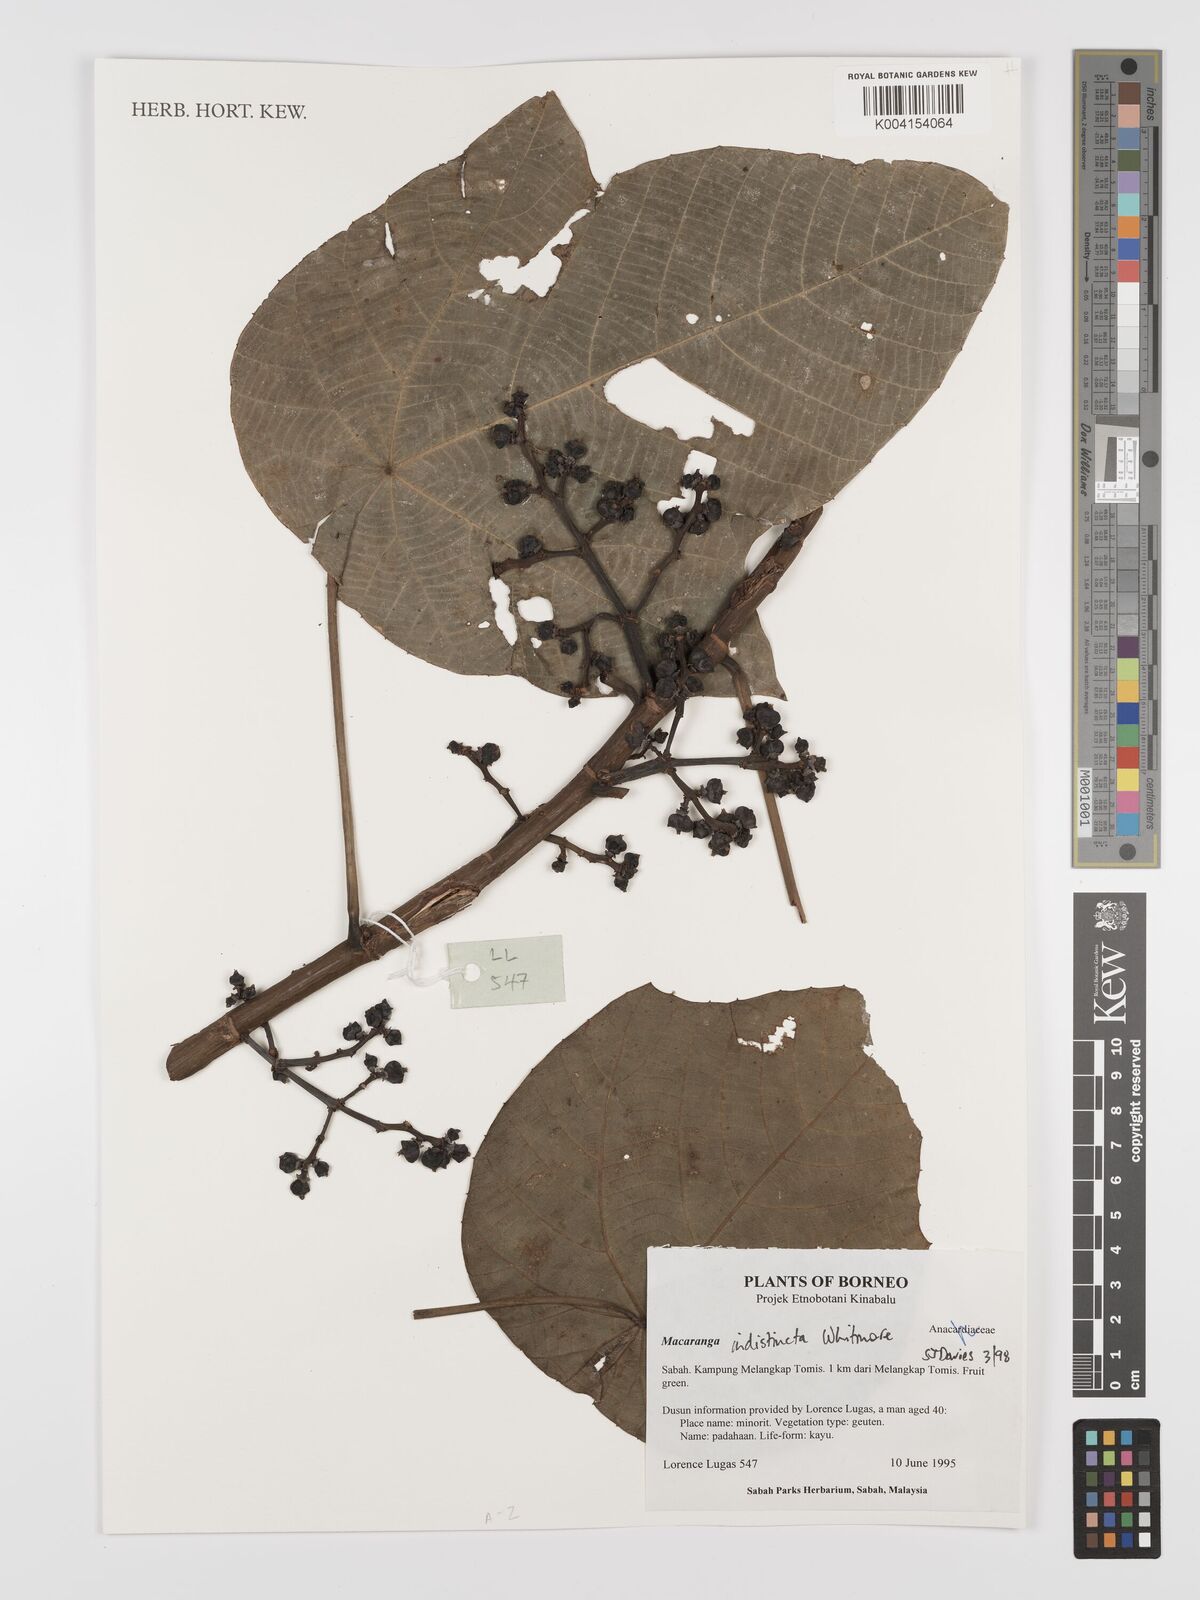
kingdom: Plantae
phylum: Tracheophyta
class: Magnoliopsida
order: Malpighiales
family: Euphorbiaceae
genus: Macaranga
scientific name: Macaranga indistincta
